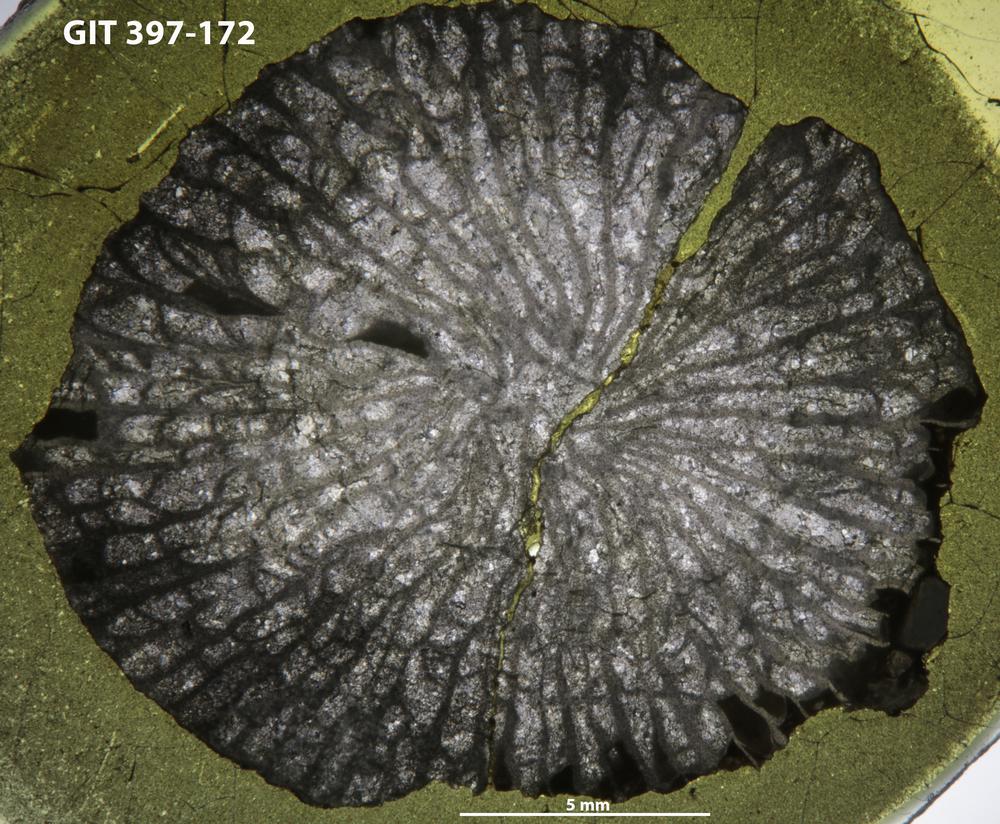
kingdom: Animalia
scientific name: Animalia
